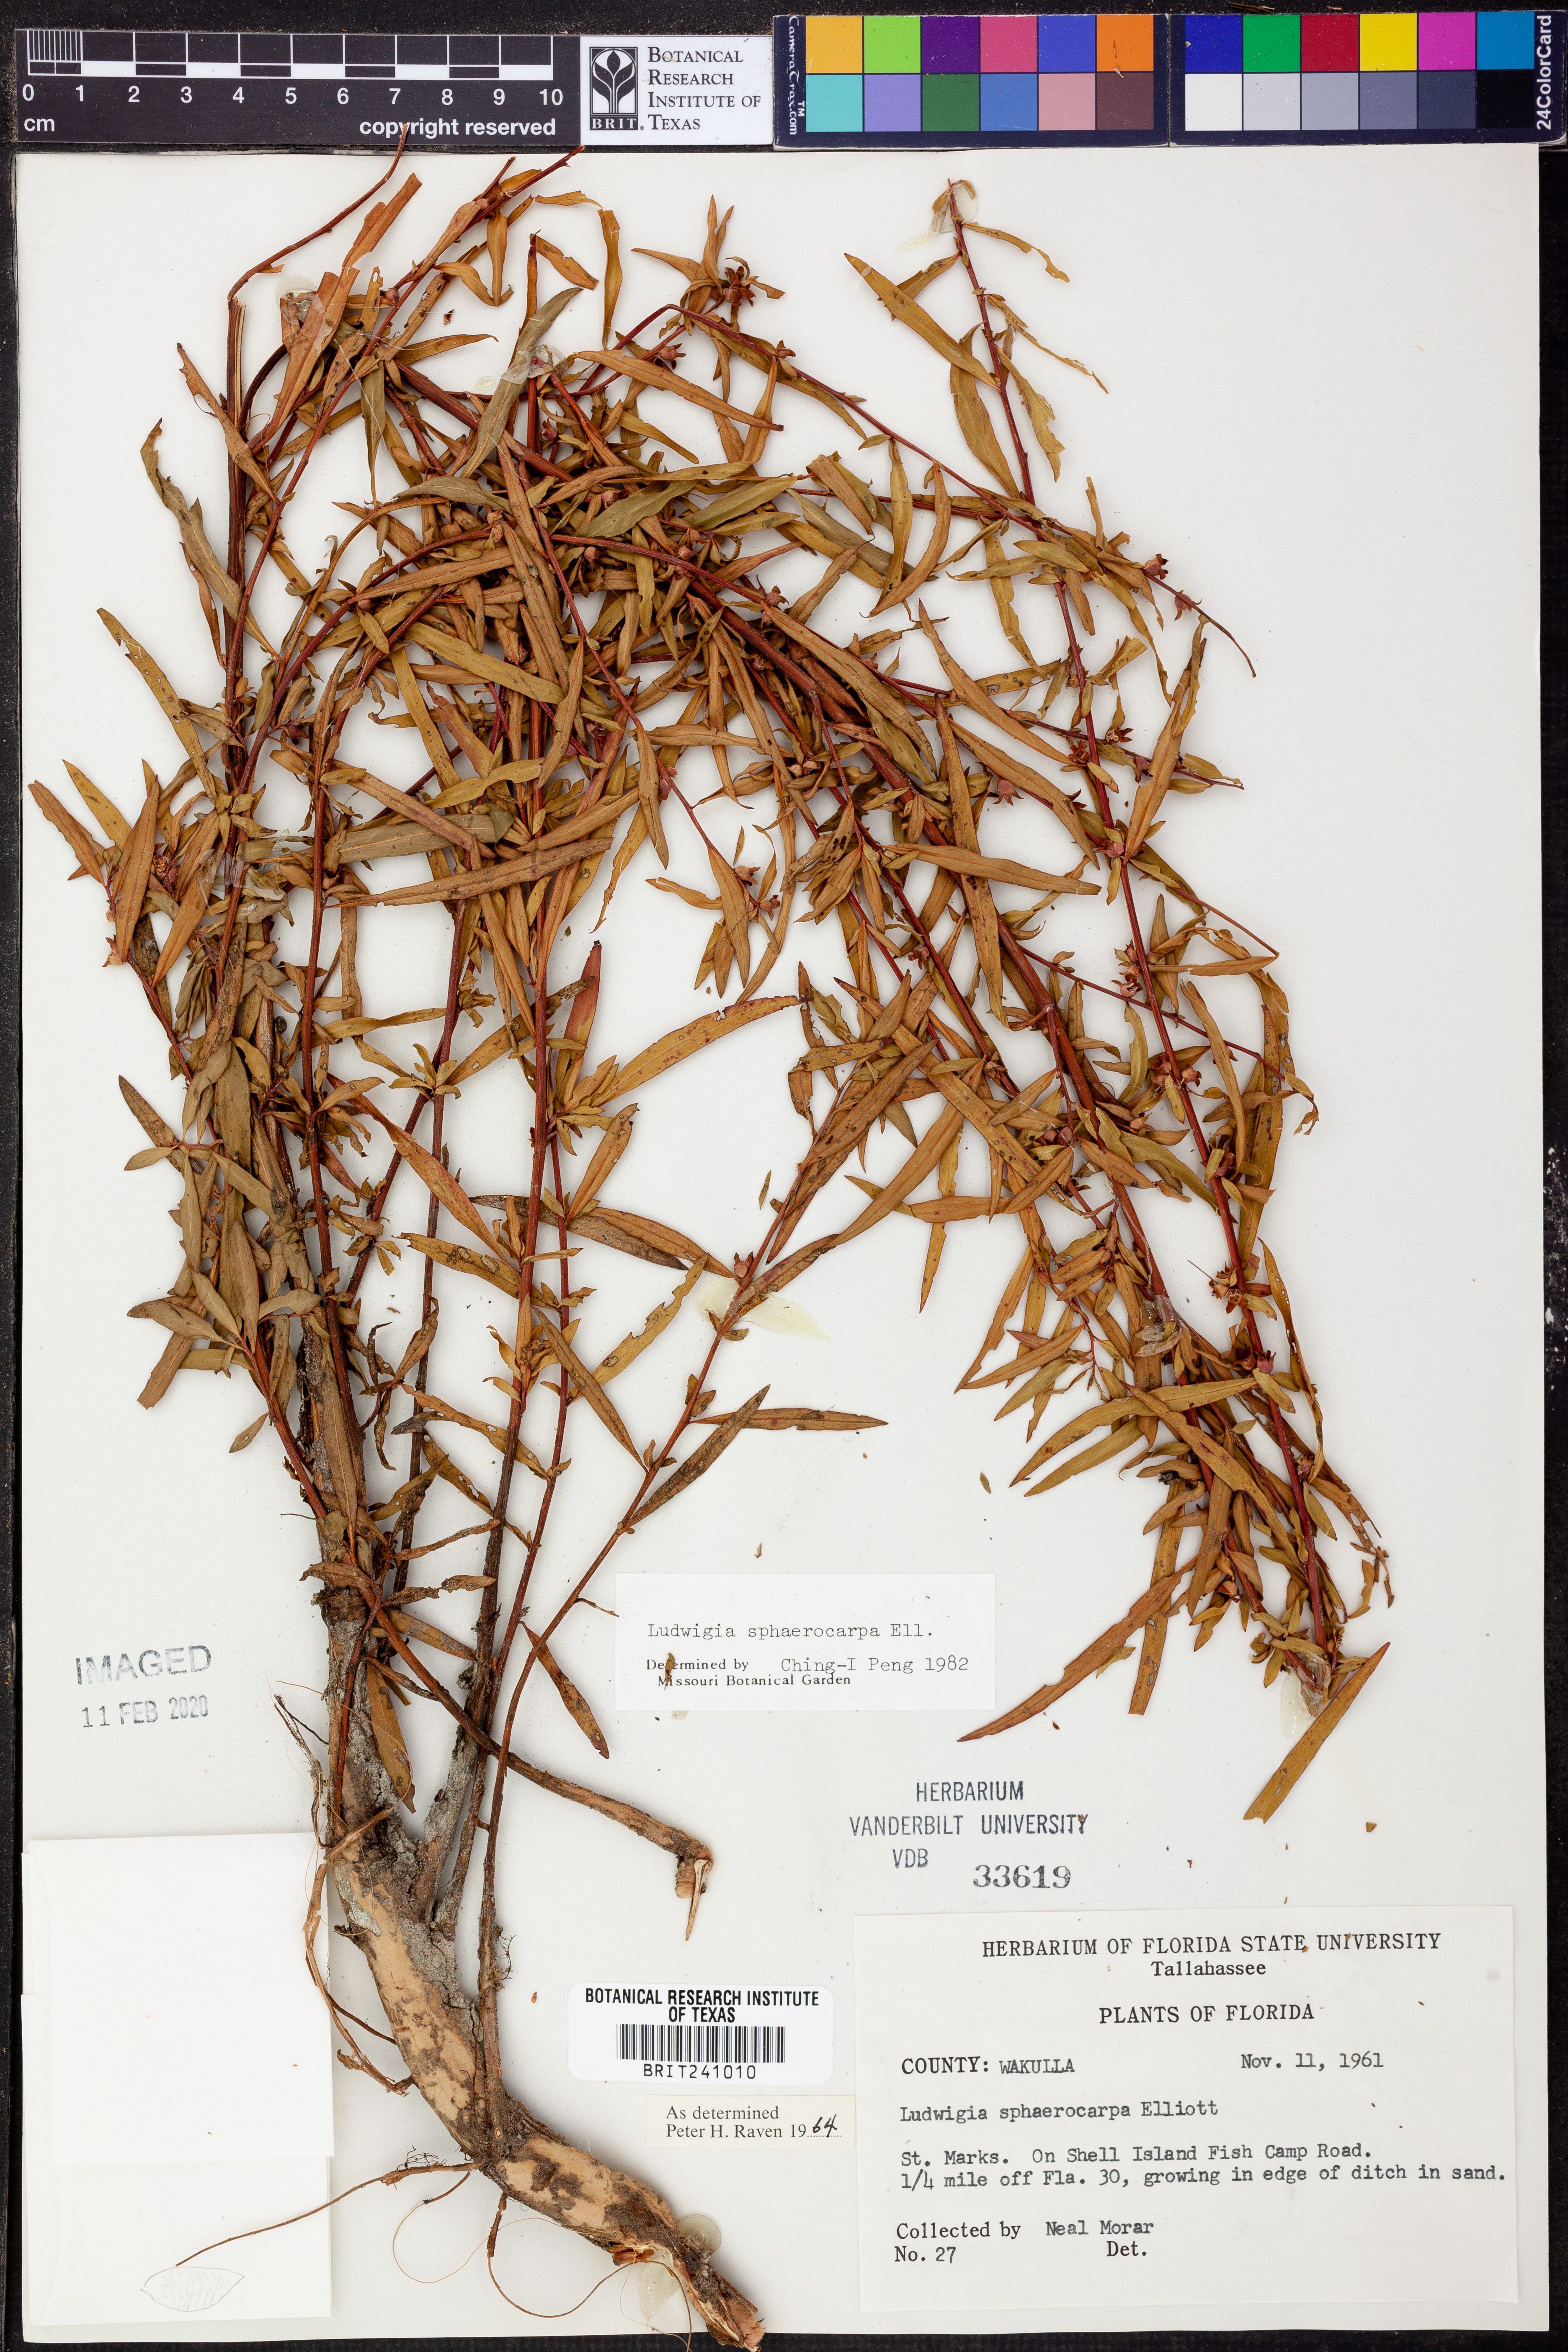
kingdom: Plantae
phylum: Tracheophyta
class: Magnoliopsida
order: Myrtales
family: Onagraceae
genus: Ludwigia
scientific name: Ludwigia sphaerocarpa
